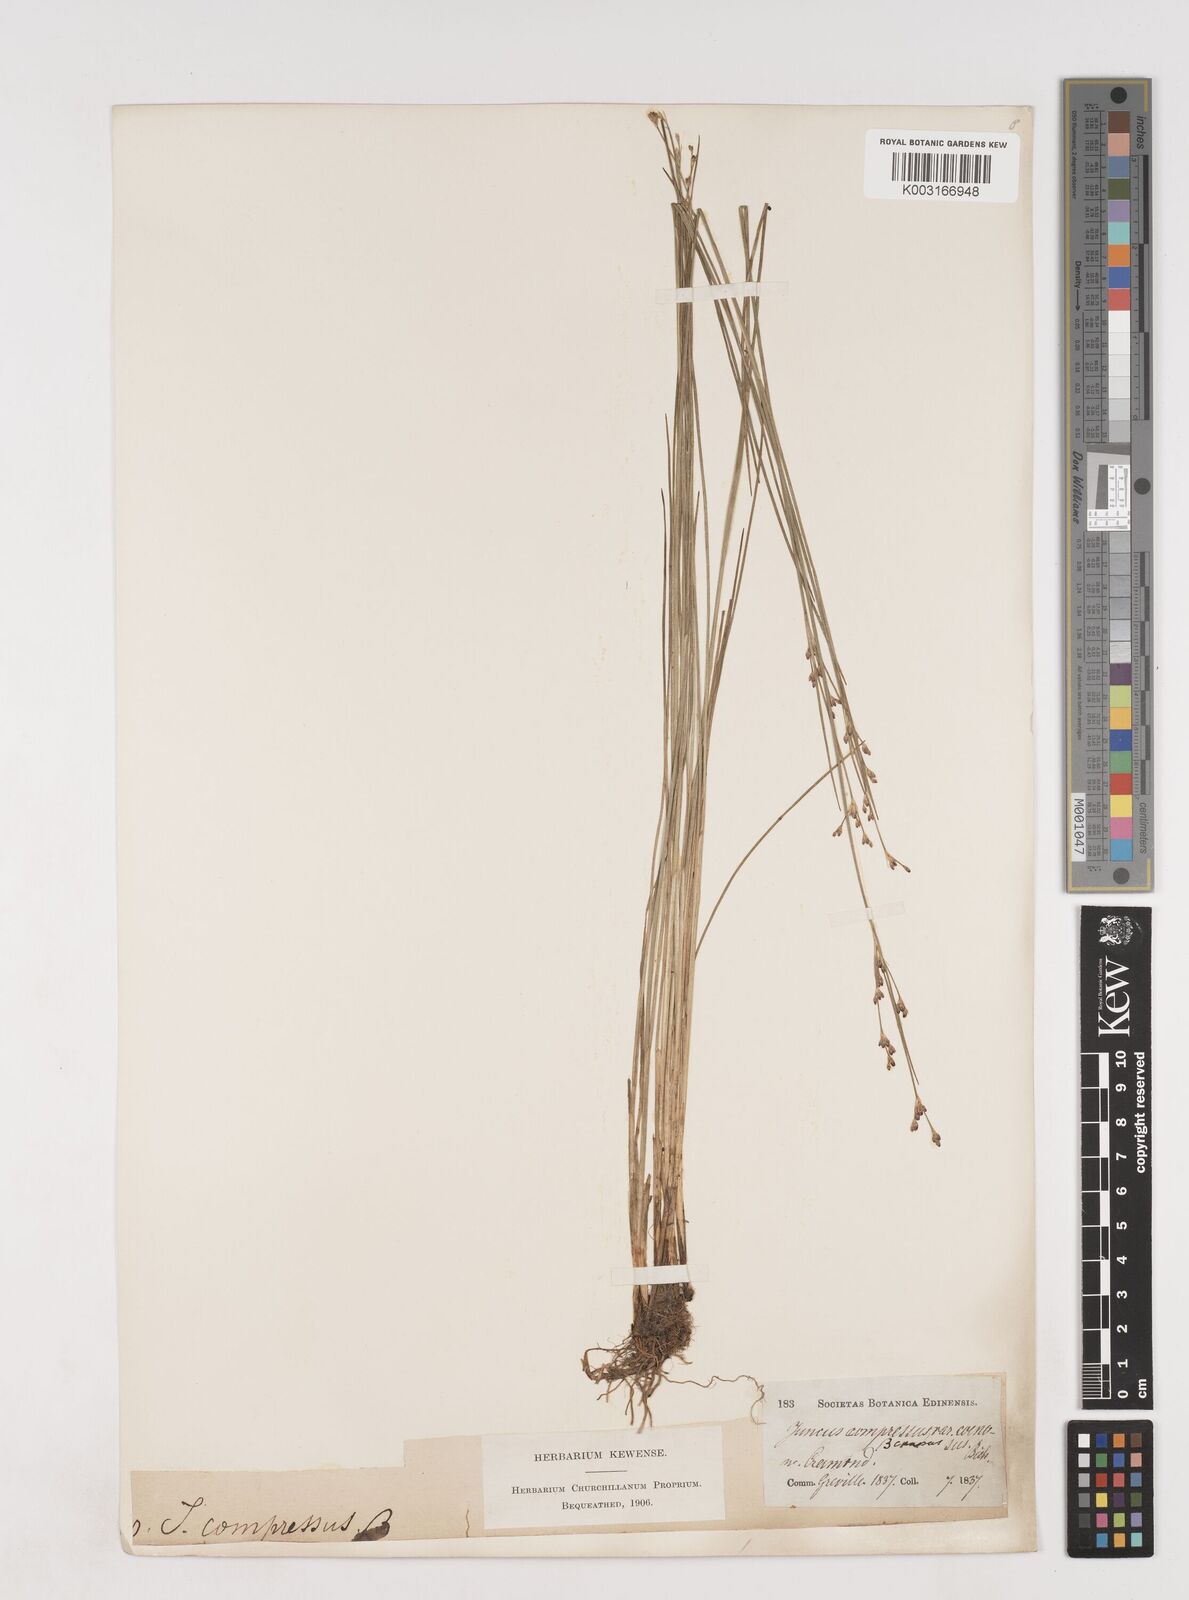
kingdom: Plantae
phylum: Tracheophyta
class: Liliopsida
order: Poales
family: Juncaceae
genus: Juncus
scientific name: Juncus gerardi
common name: Saltmarsh rush
